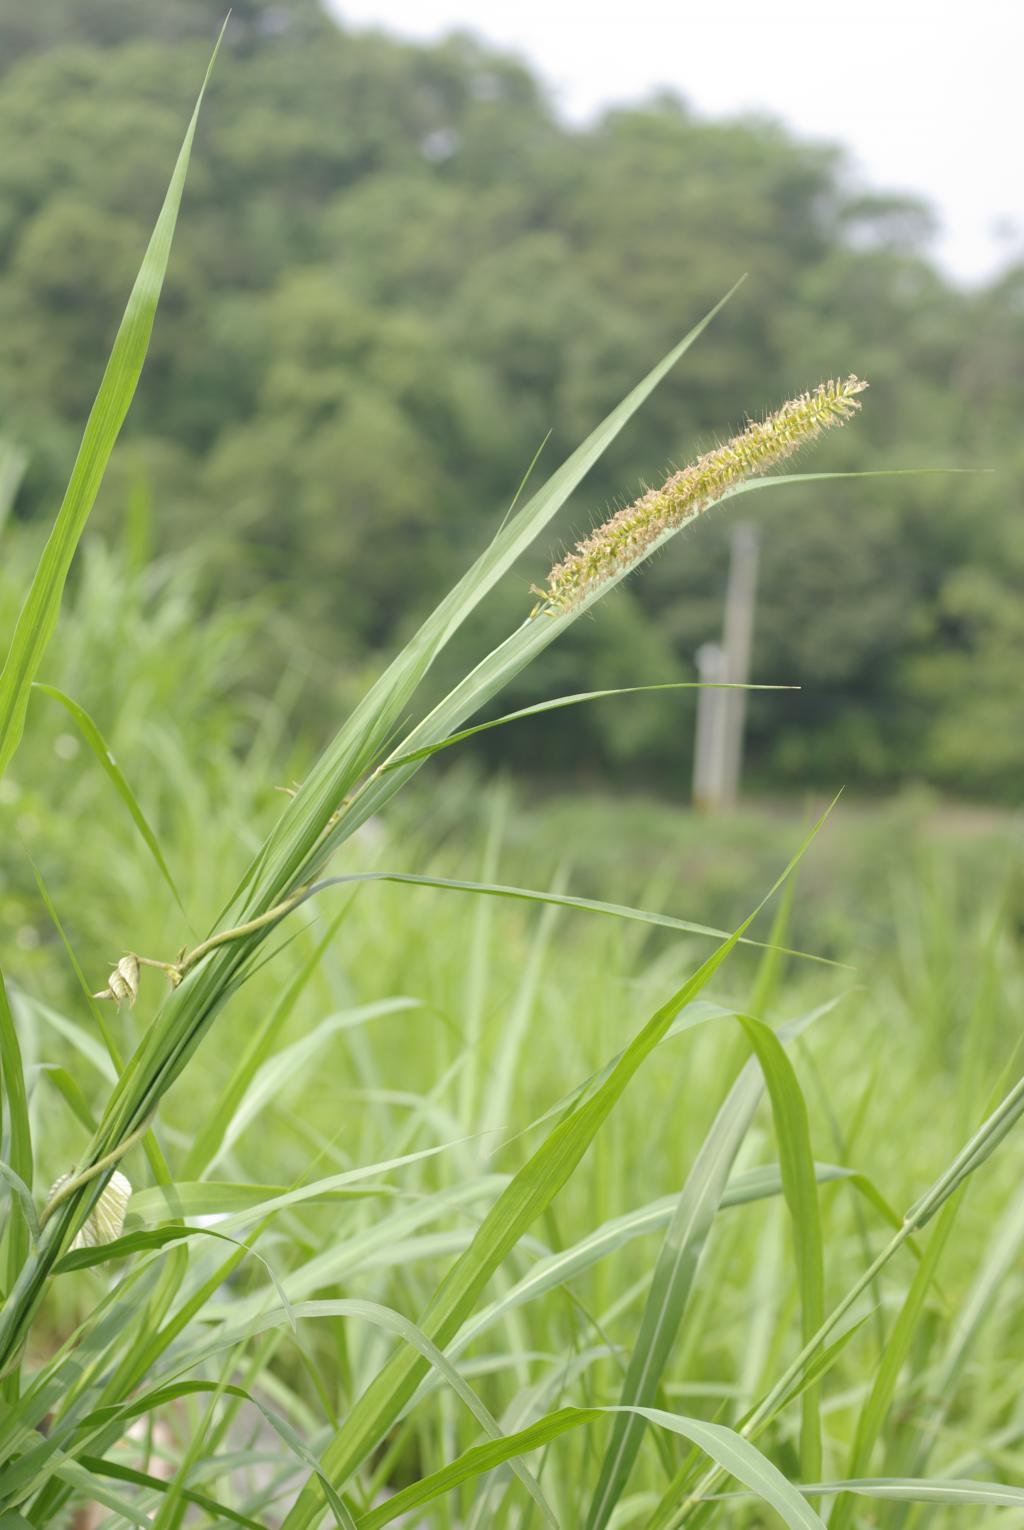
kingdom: Plantae
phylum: Tracheophyta
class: Liliopsida
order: Poales
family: Poaceae
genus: Cenchrus
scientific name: Cenchrus purpureus
